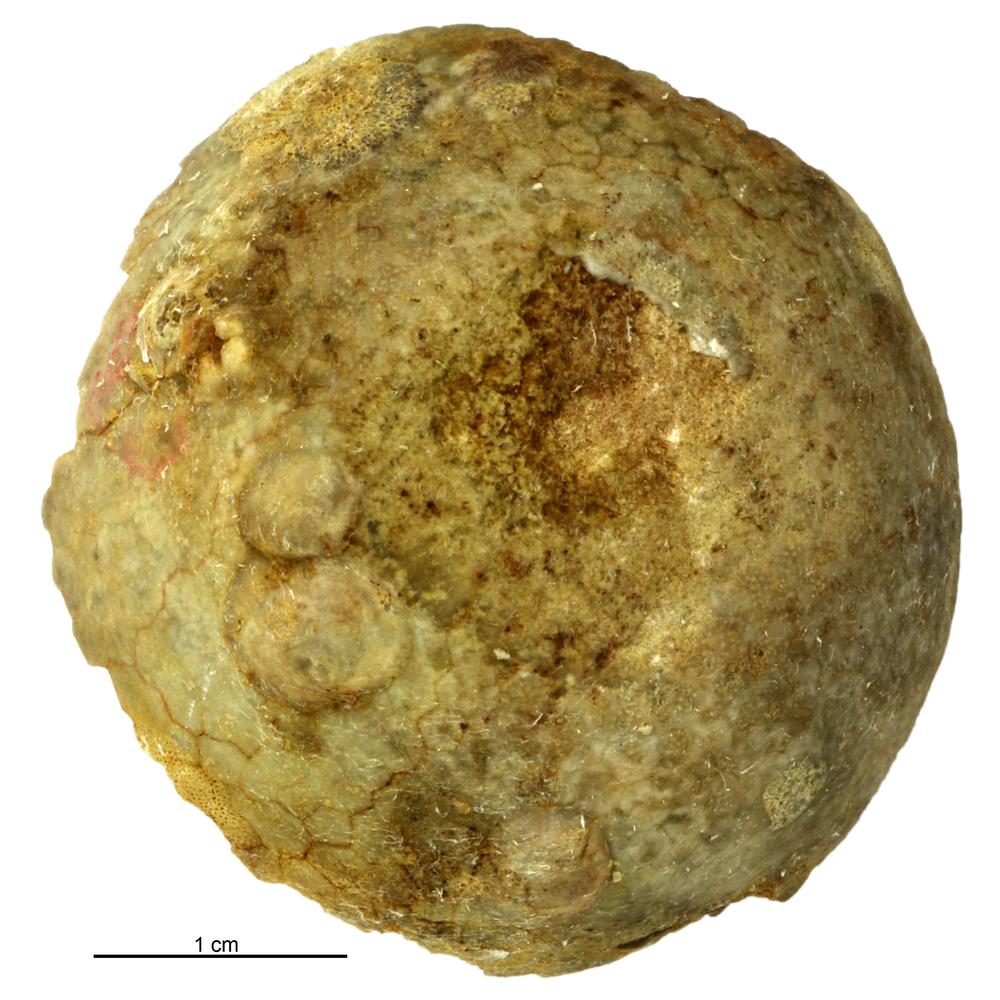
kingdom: Animalia
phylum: Echinodermata
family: Echinosphaeritidae
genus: Echinosphaerites
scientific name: Echinosphaerites Echinus aurantium
